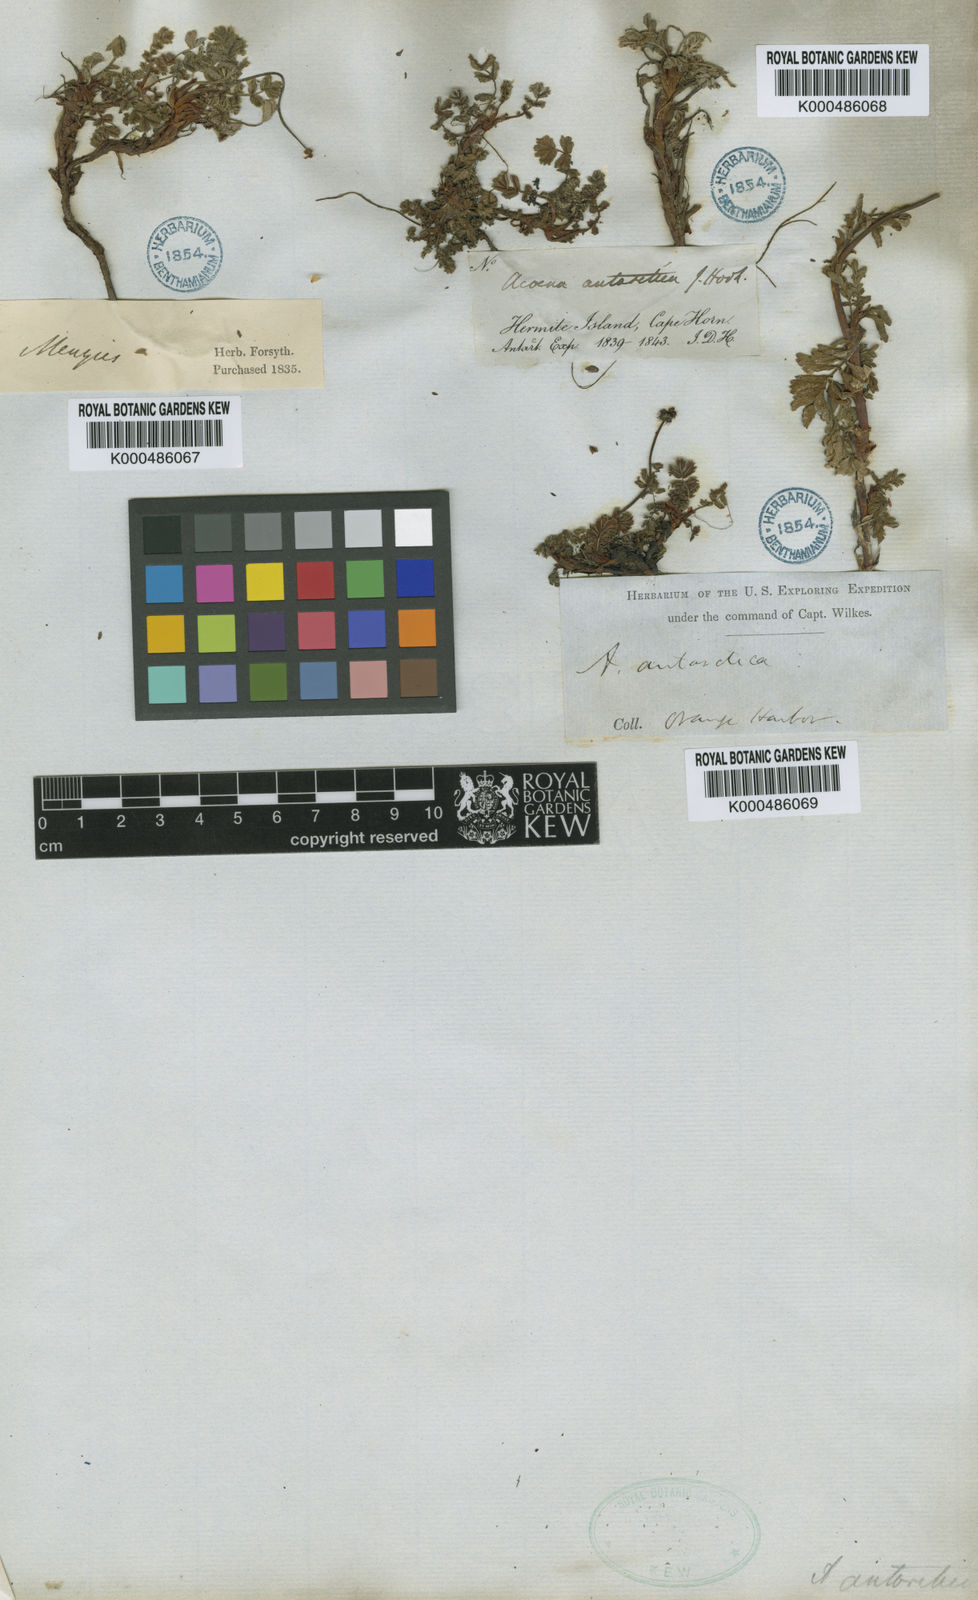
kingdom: Plantae
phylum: Tracheophyta
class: Magnoliopsida
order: Rosales
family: Rosaceae
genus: Acaena
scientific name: Acaena antarctica
